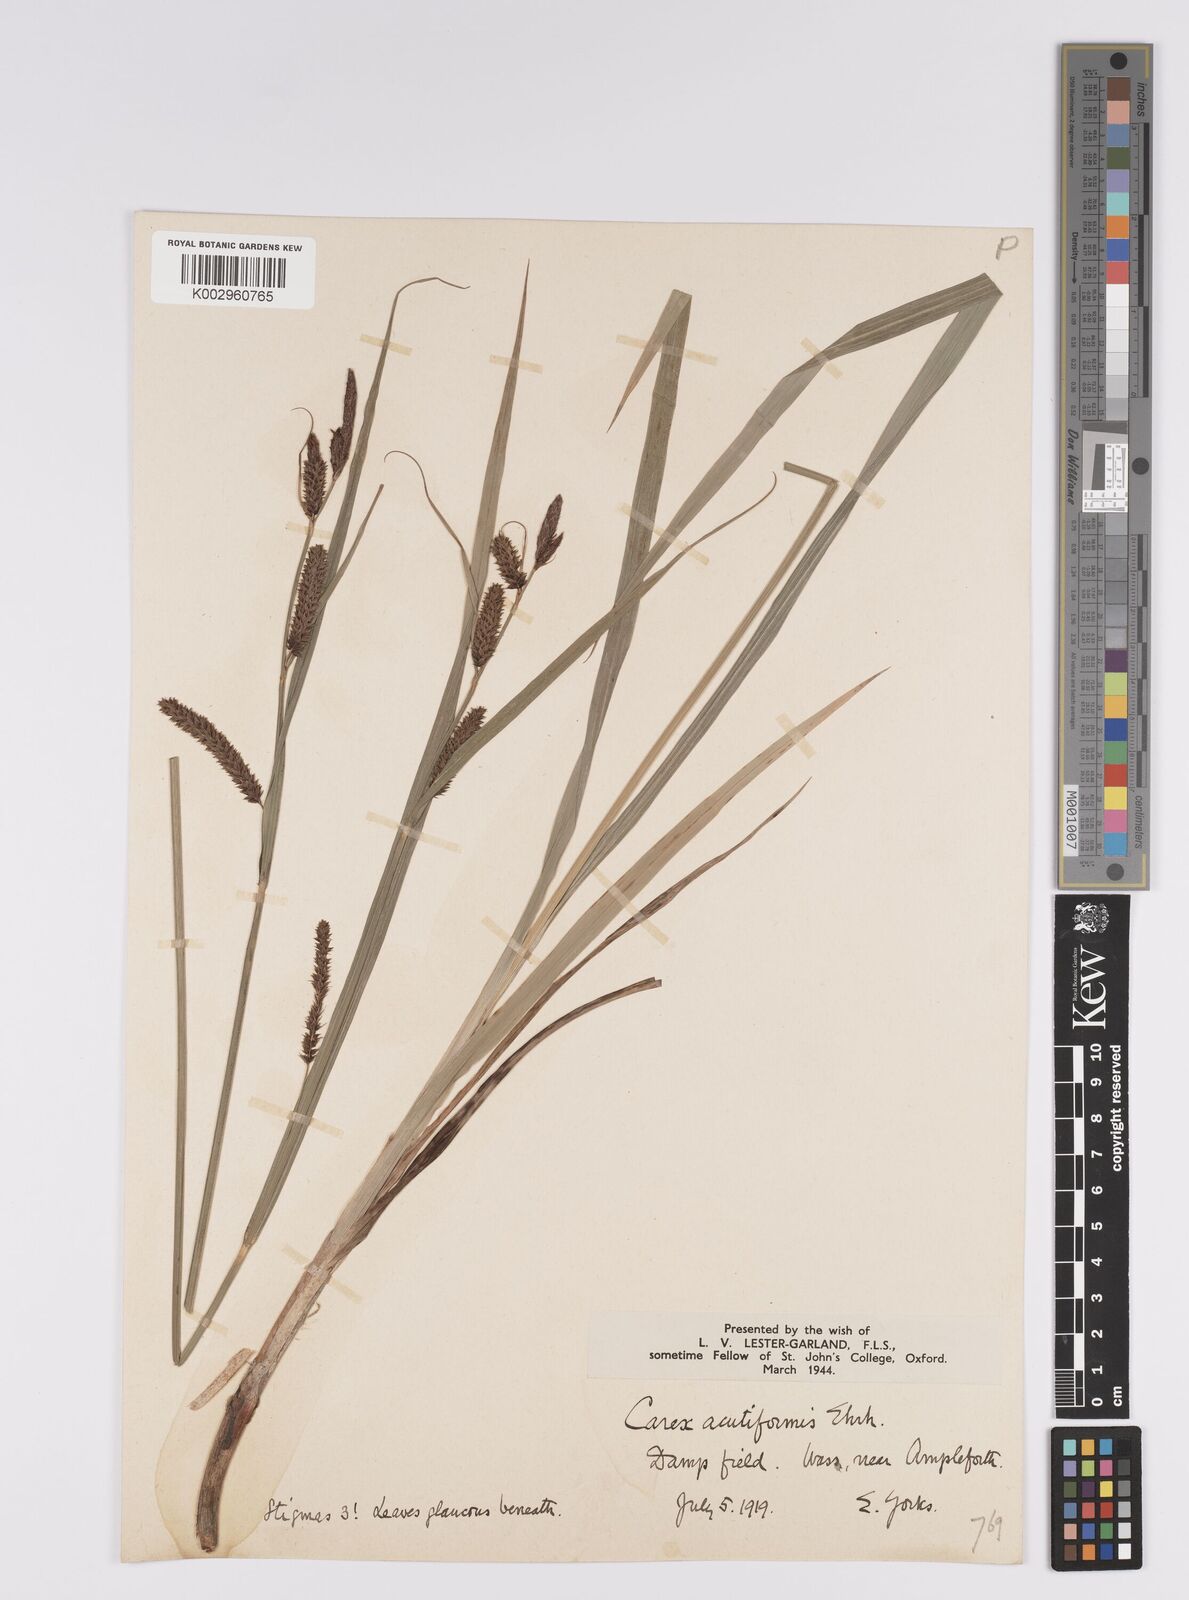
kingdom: Plantae
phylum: Tracheophyta
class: Liliopsida
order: Poales
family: Cyperaceae
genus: Carex
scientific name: Carex acutiformis
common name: Lesser pond-sedge
